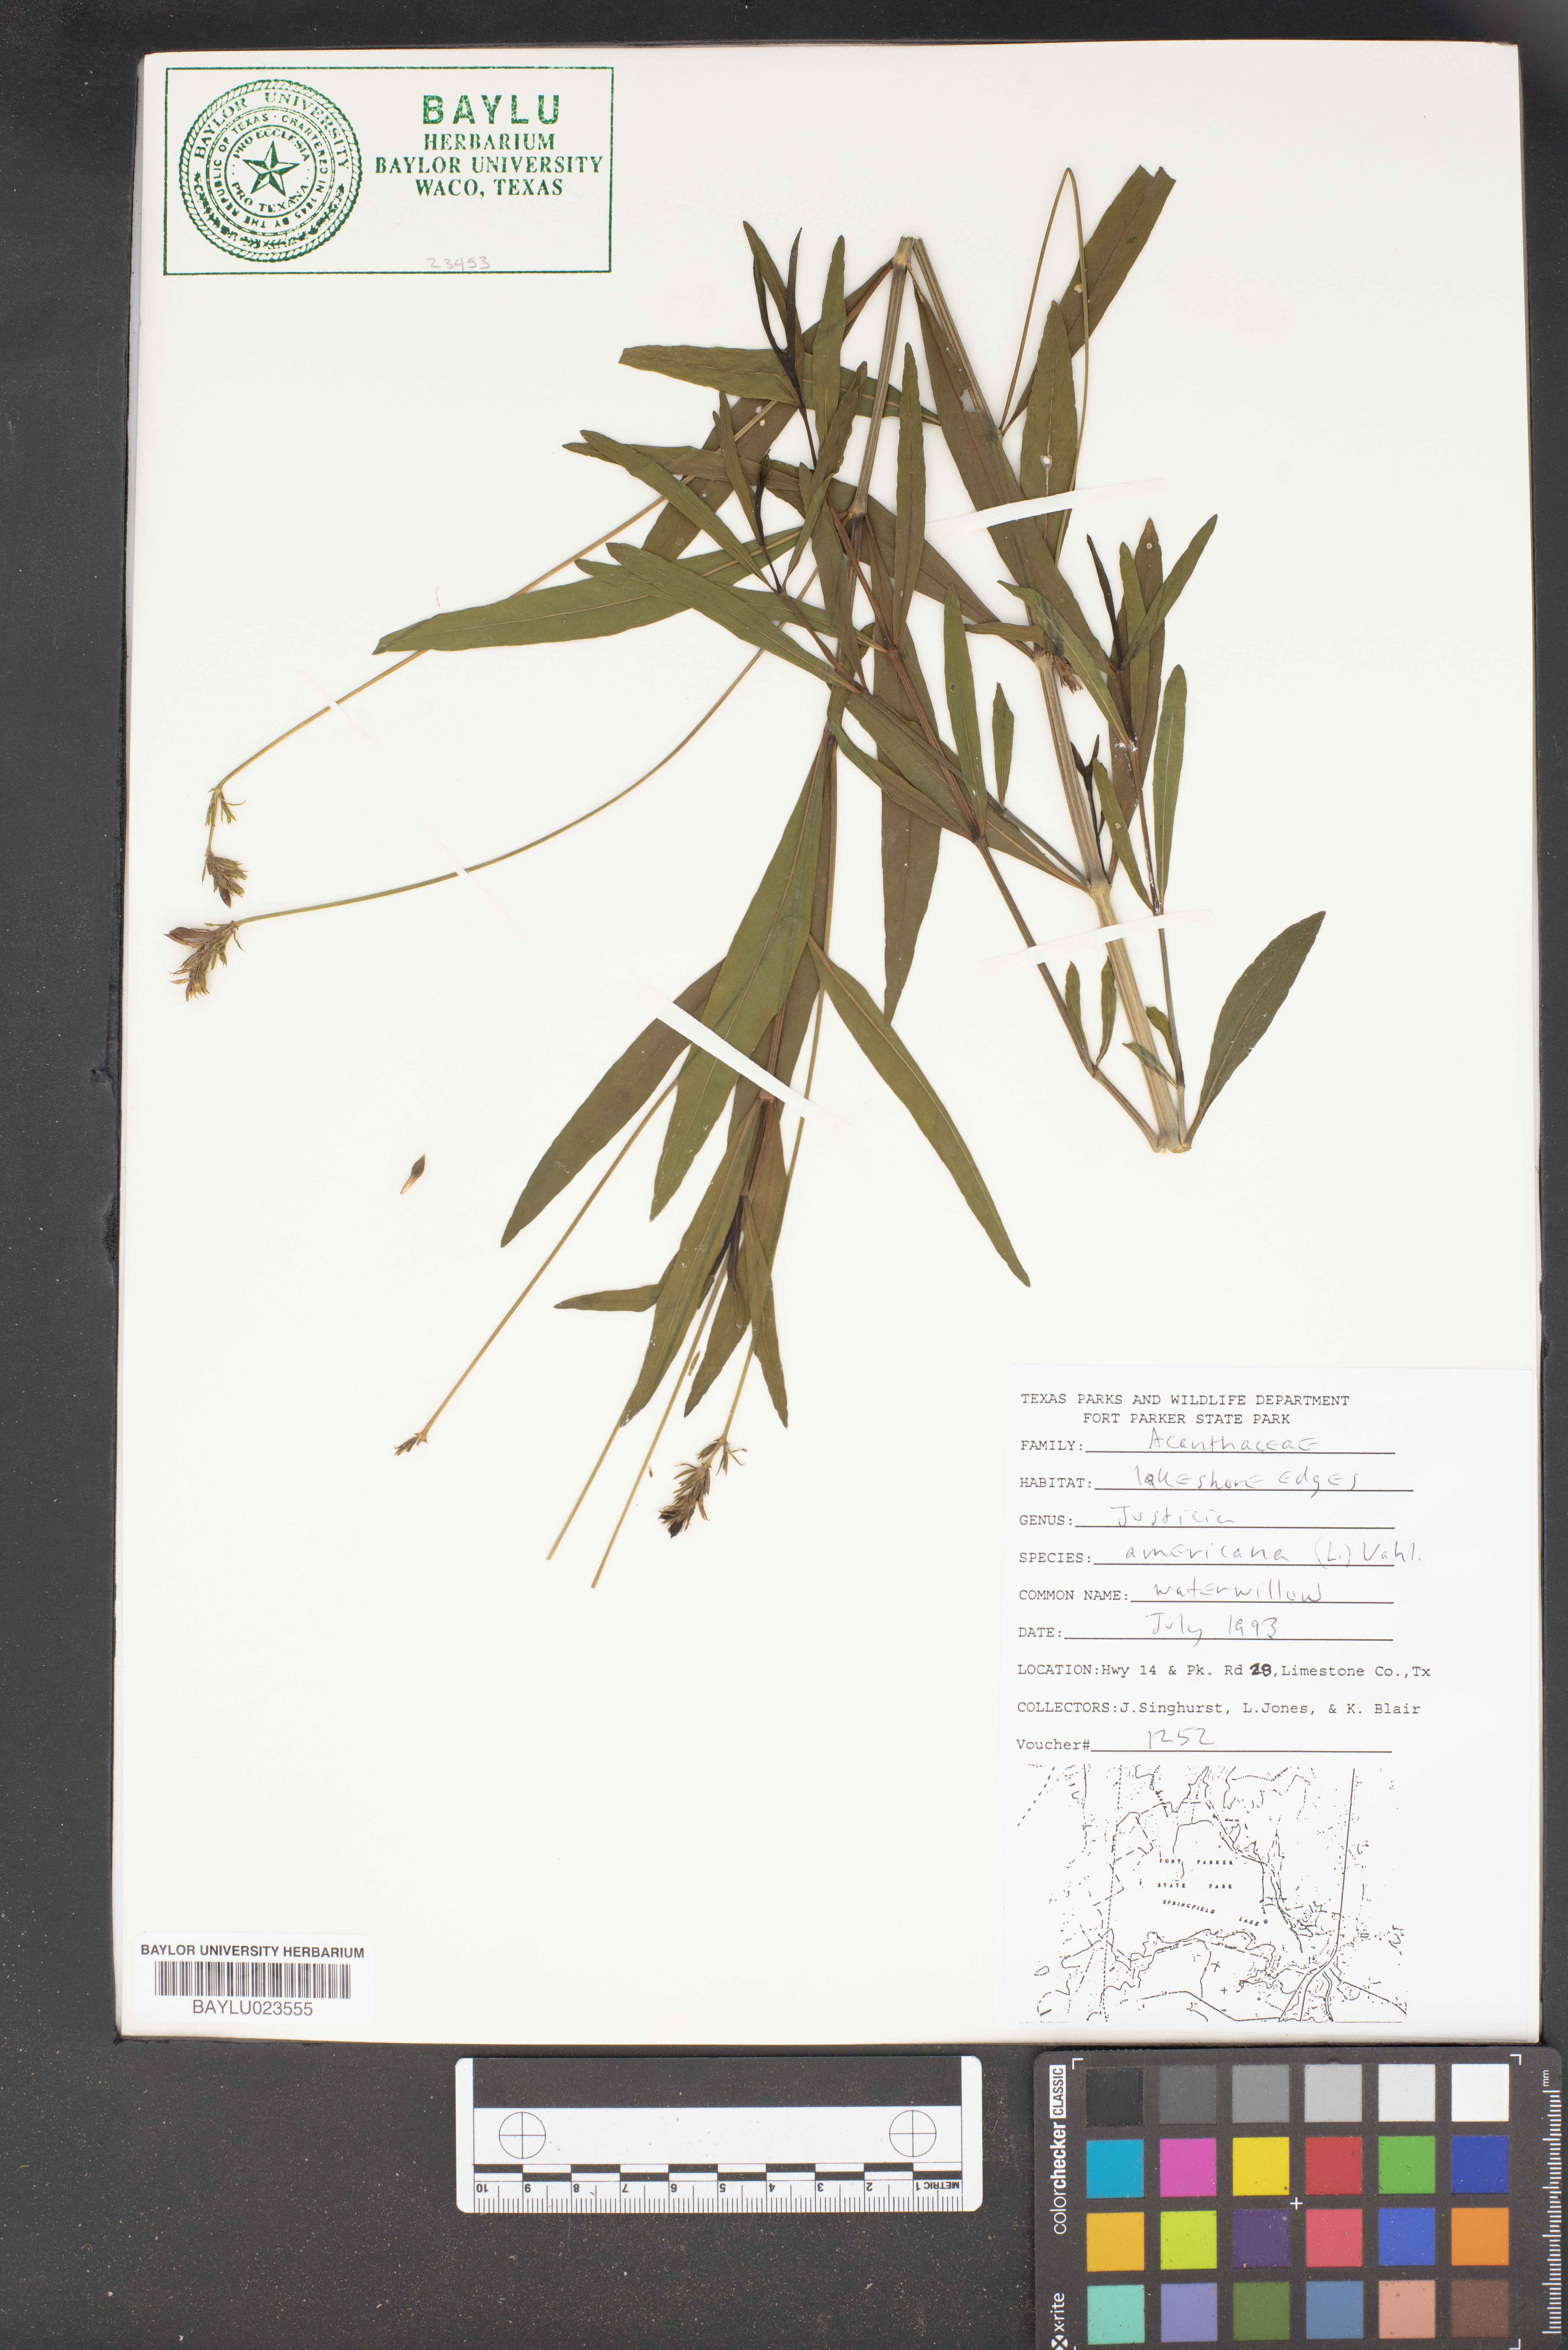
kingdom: Plantae
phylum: Tracheophyta
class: Magnoliopsida
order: Lamiales
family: Acanthaceae
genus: Dianthera
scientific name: Dianthera americana
